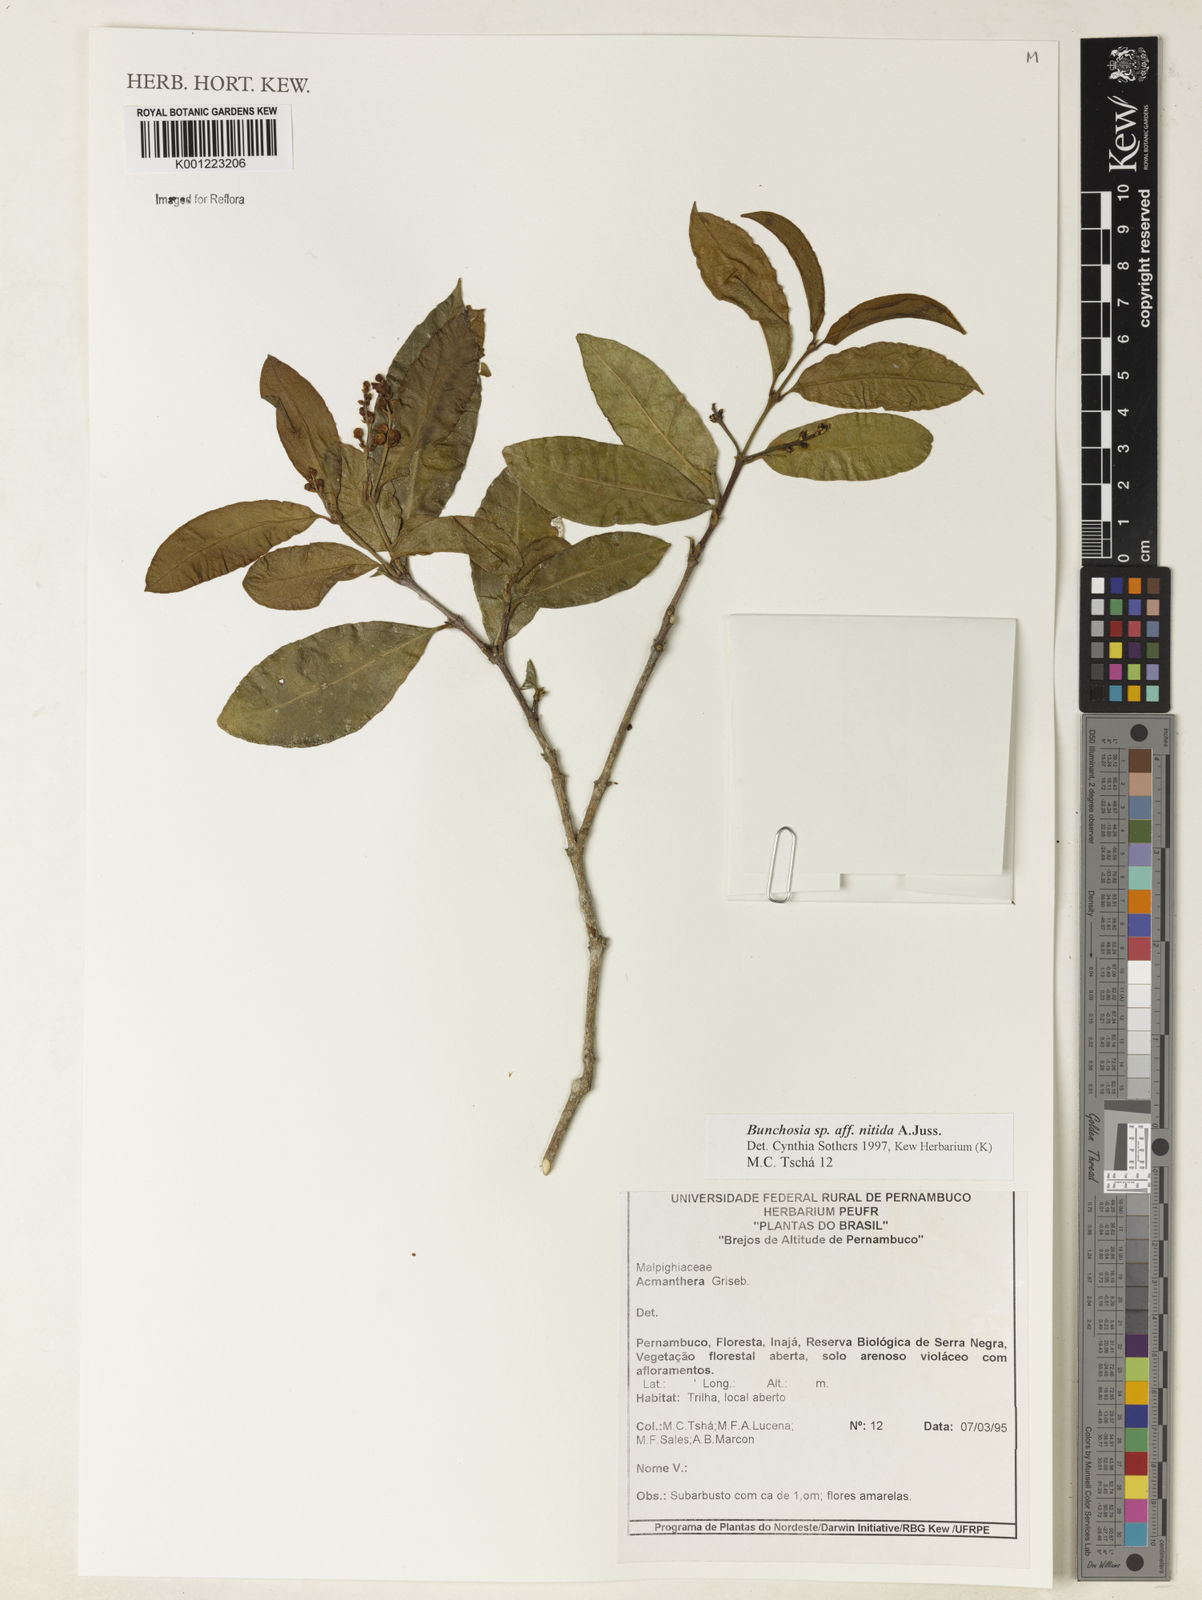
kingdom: Plantae
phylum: Tracheophyta
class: Magnoliopsida
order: Malpighiales
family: Malpighiaceae
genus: Bunchosia
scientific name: Bunchosia
